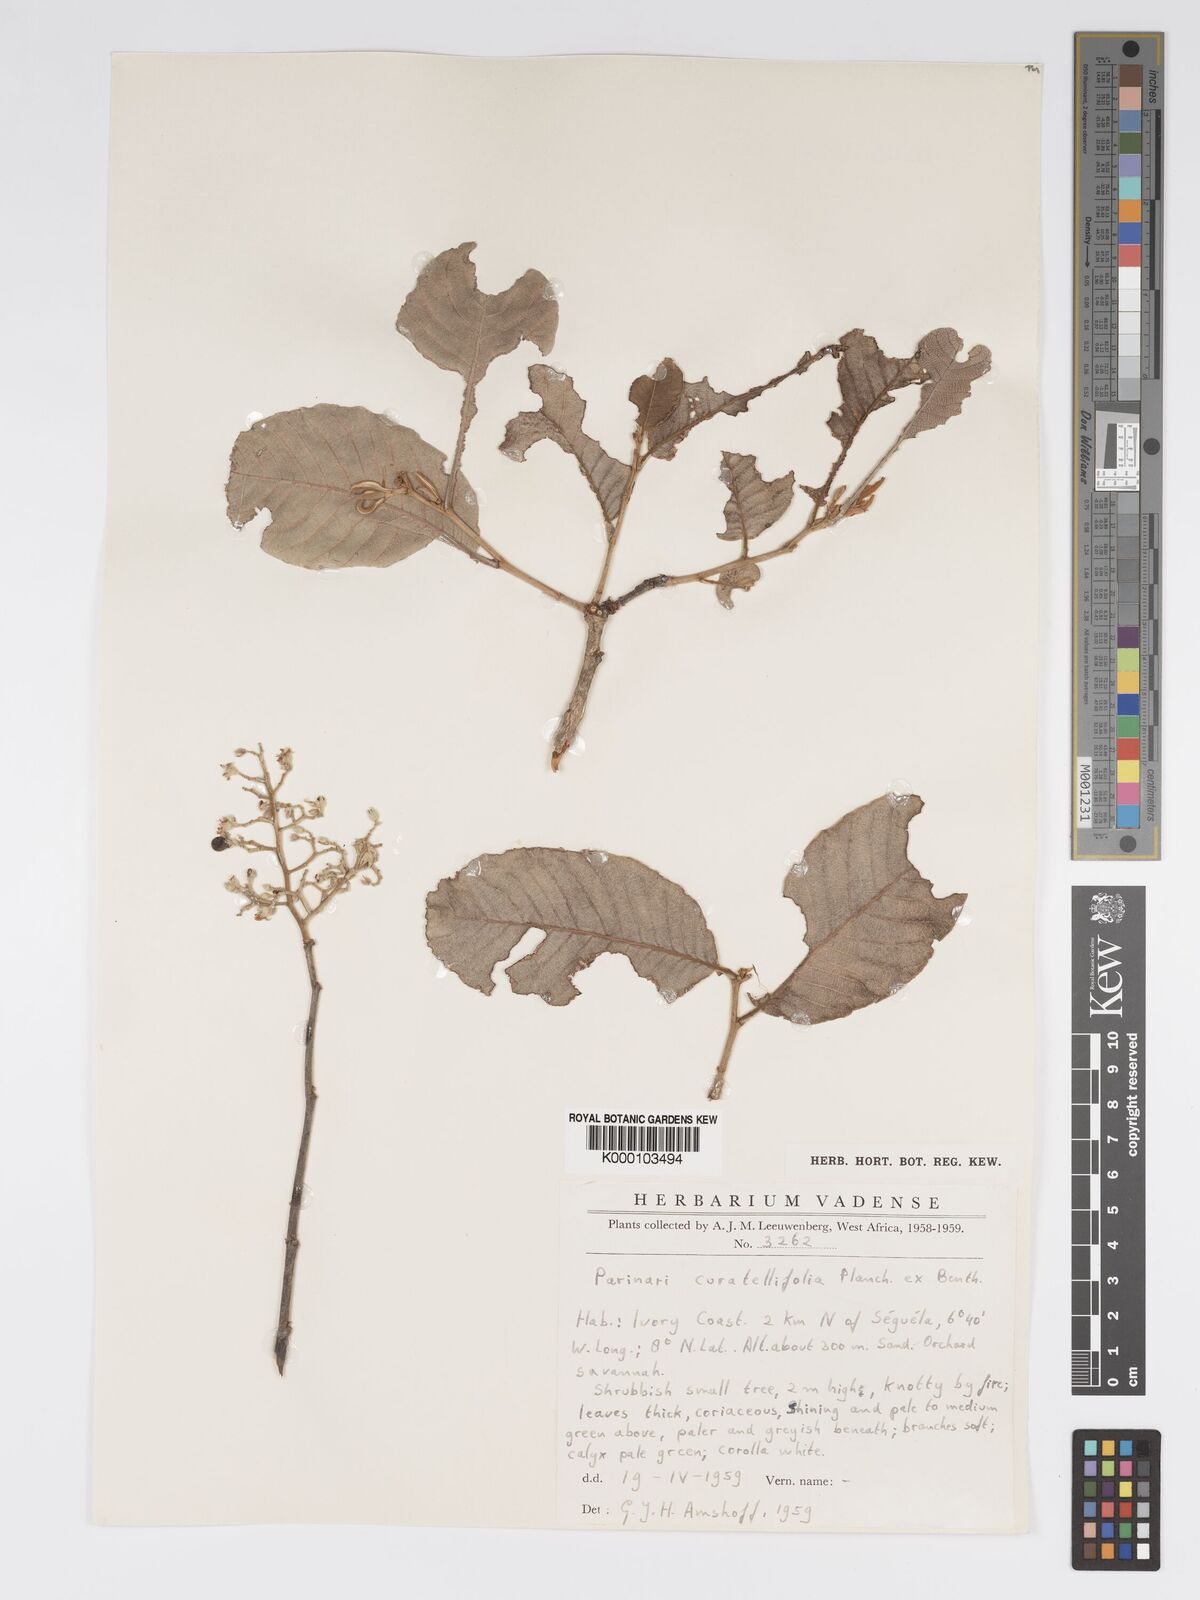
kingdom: Plantae
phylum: Tracheophyta
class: Magnoliopsida
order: Malpighiales
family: Chrysobalanaceae
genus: Parinari
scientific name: Parinari curatellifolia
